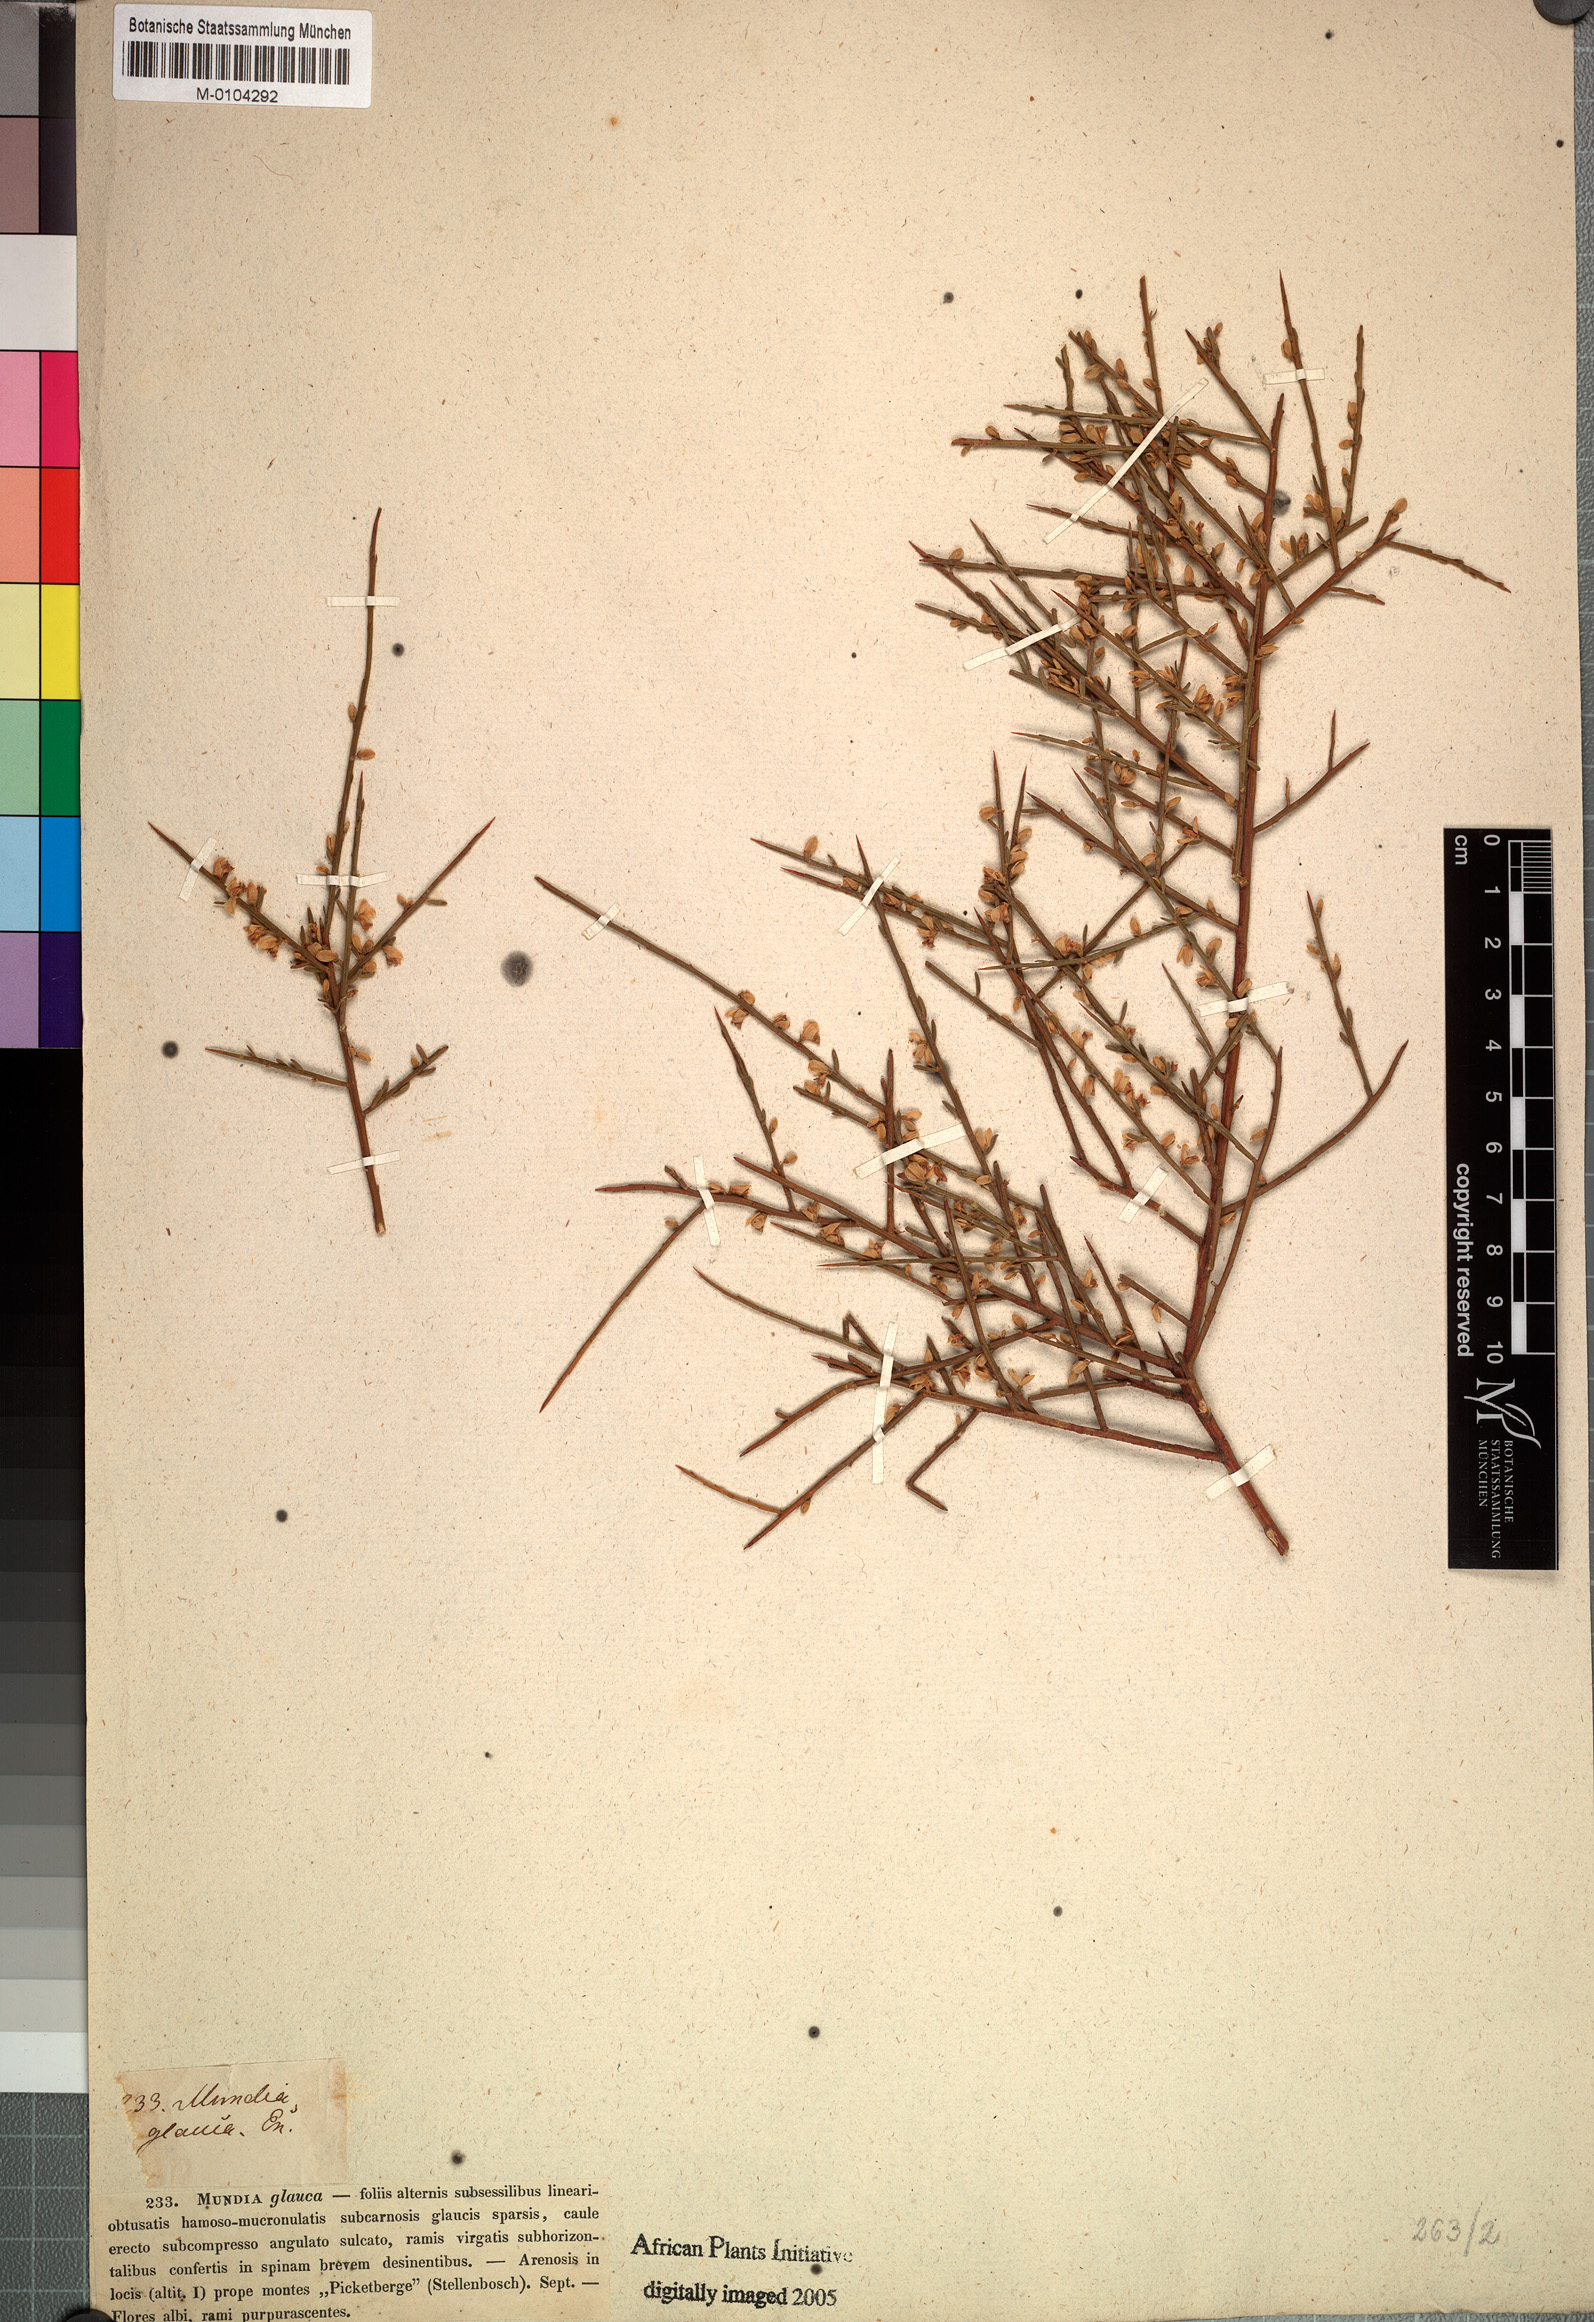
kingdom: Plantae
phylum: Tracheophyta
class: Magnoliopsida
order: Fabales
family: Polygalaceae
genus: Muraltia
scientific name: Muraltia spinosa
